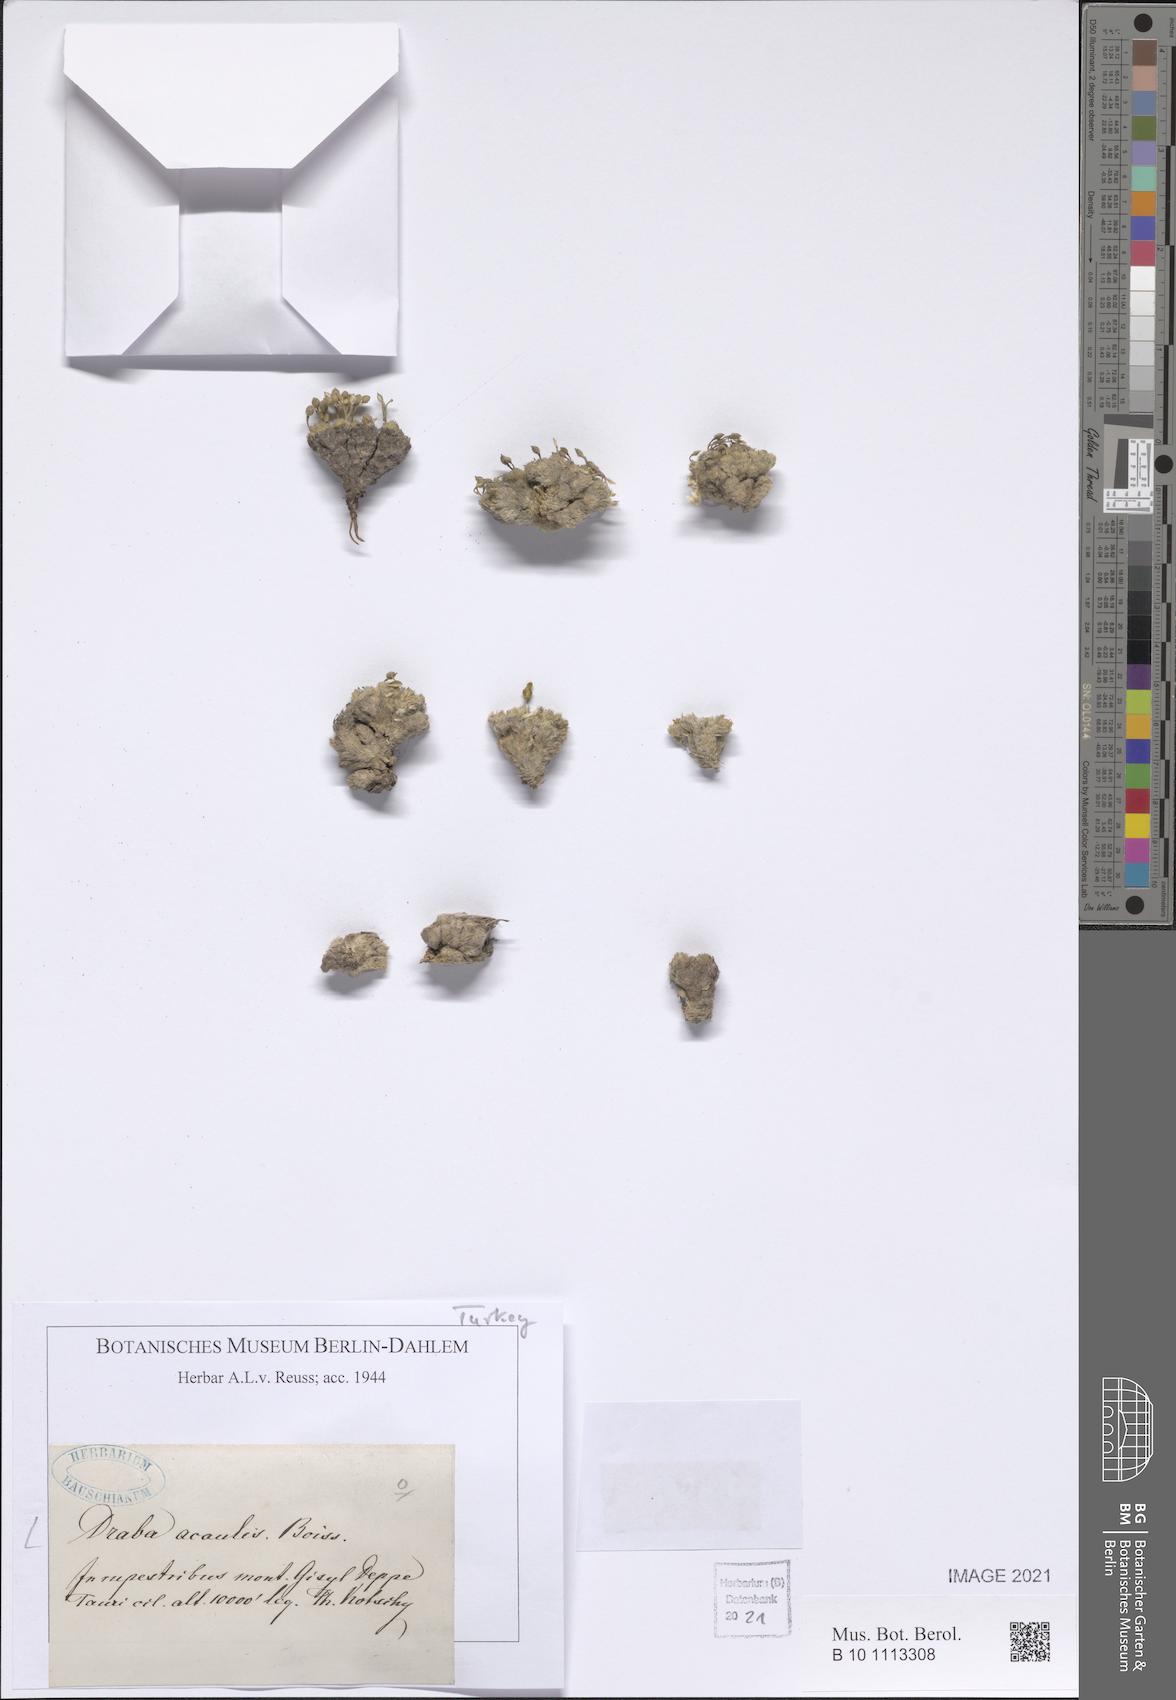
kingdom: Plantae
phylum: Tracheophyta
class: Magnoliopsida
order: Brassicales
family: Brassicaceae
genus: Draba
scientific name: Draba acaulis
